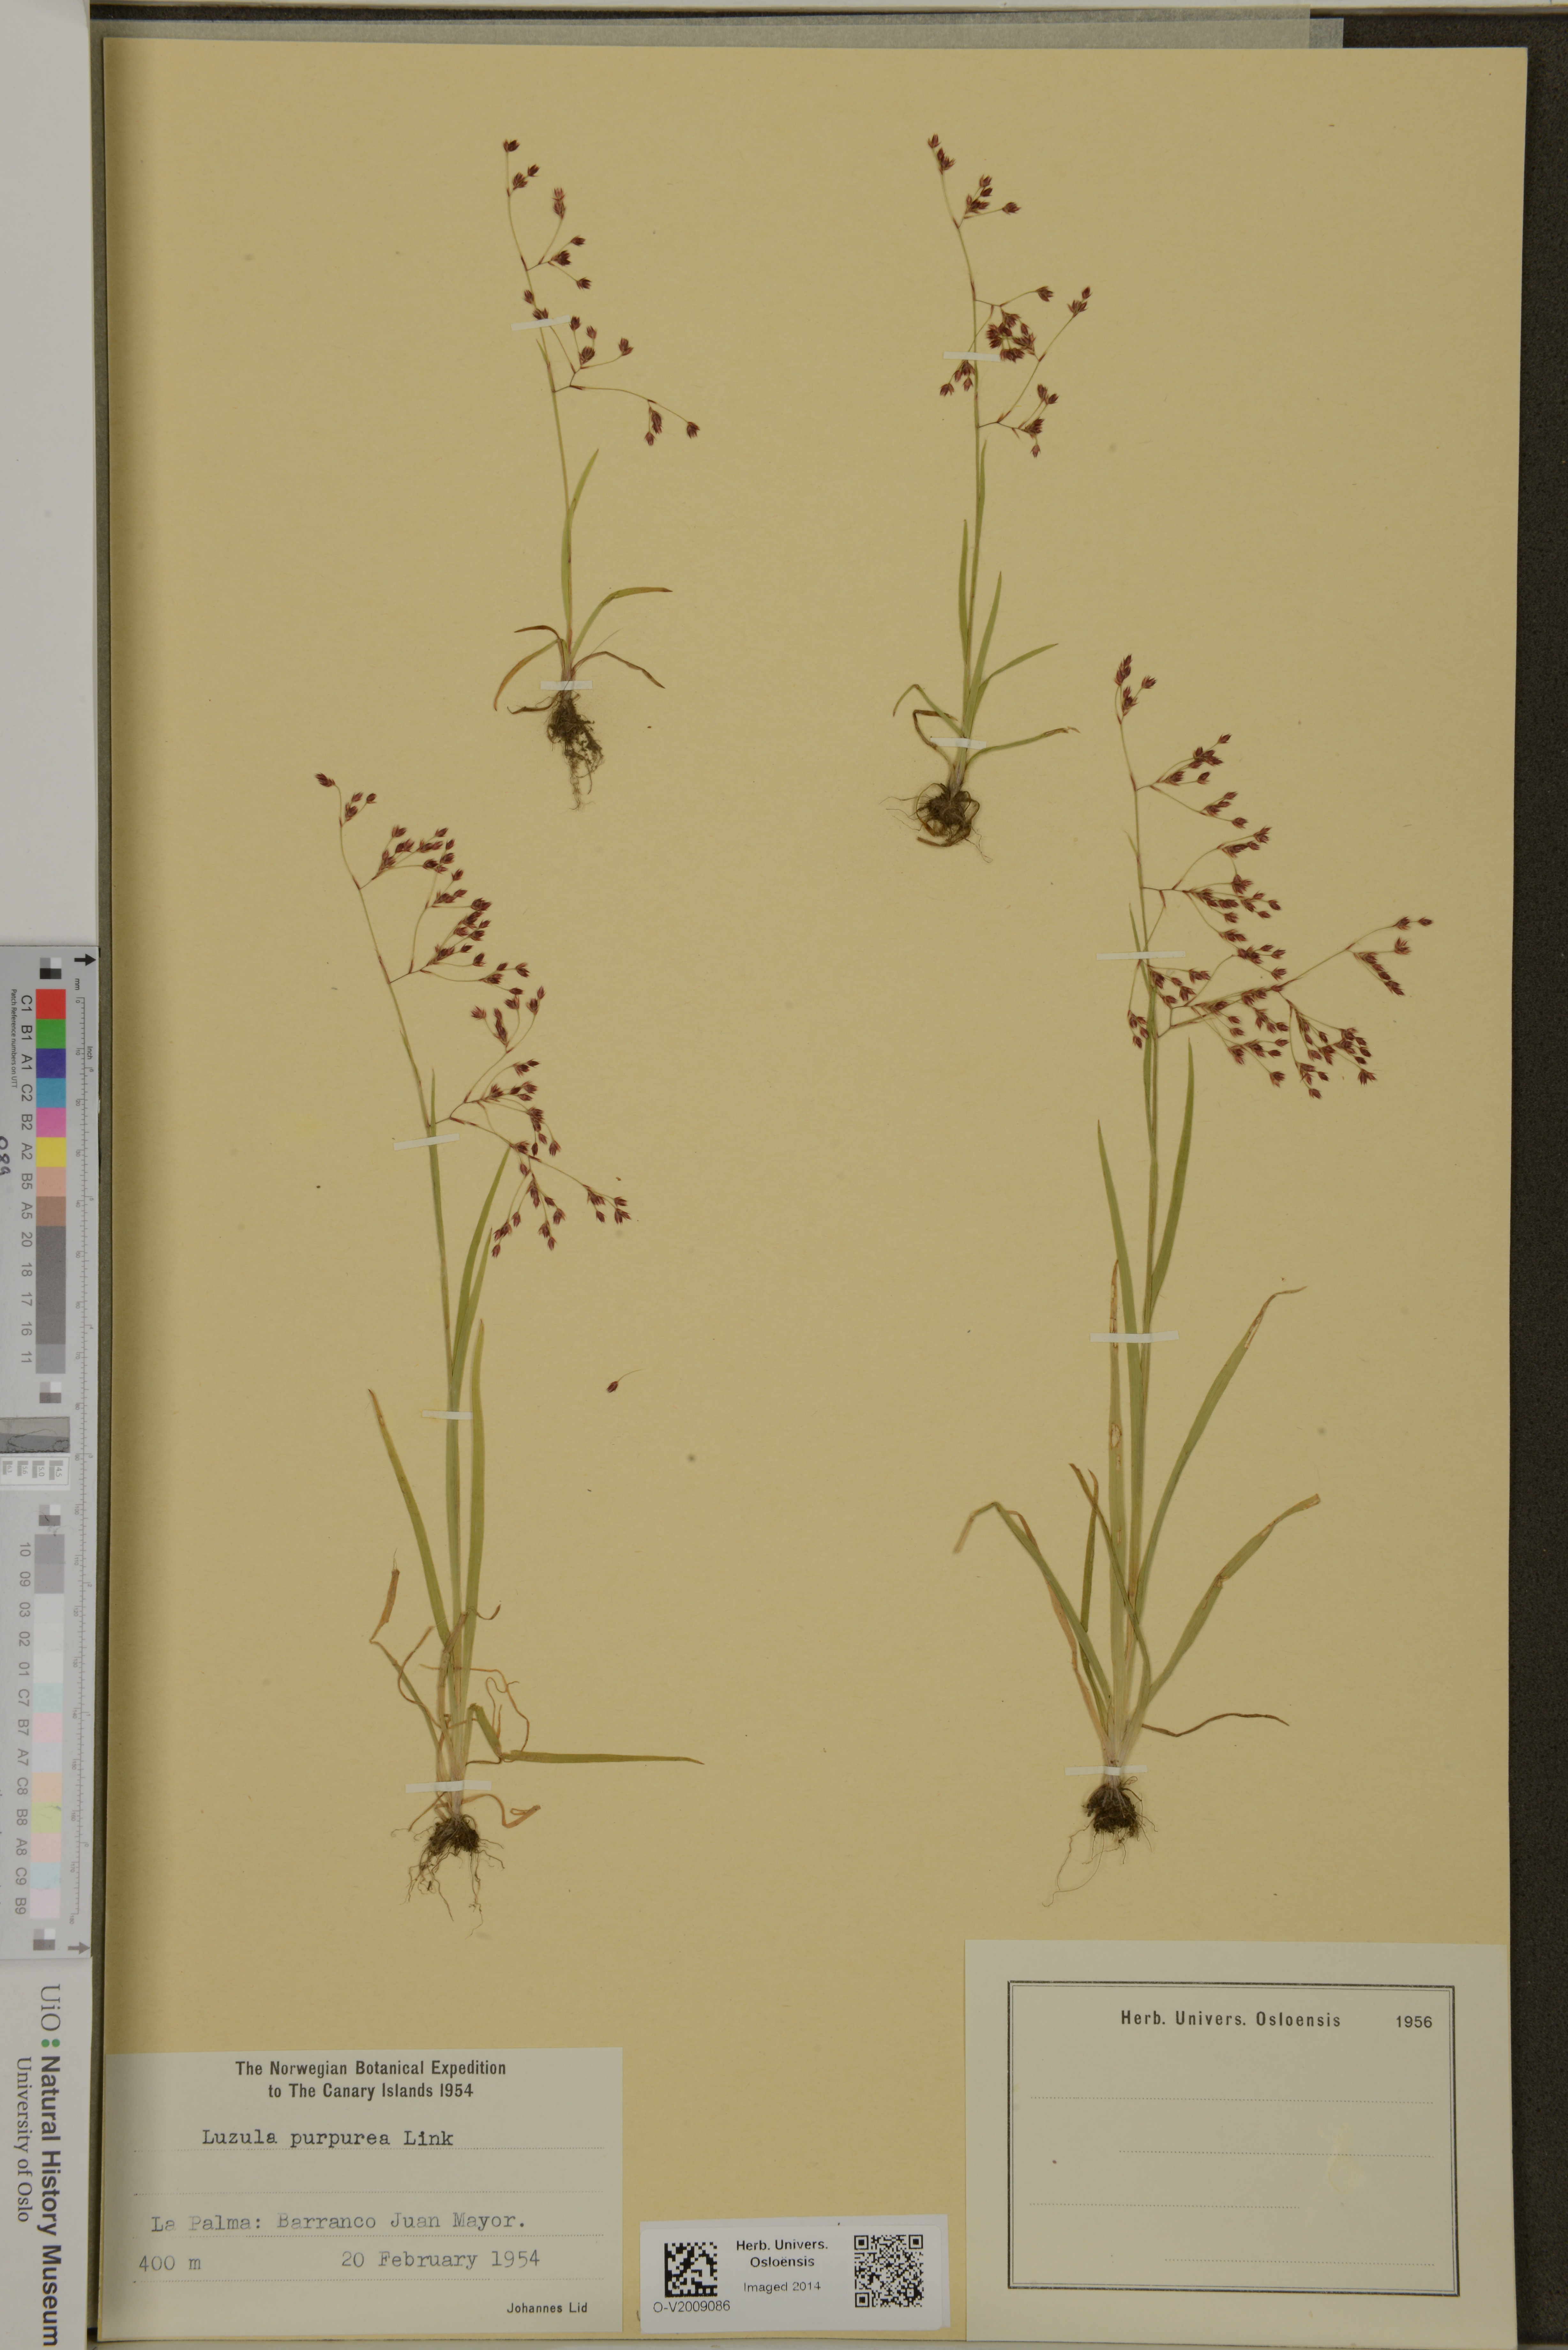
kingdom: Plantae
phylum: Tracheophyta
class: Liliopsida
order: Poales
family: Juncaceae
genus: Luzula
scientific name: Luzula elegans
